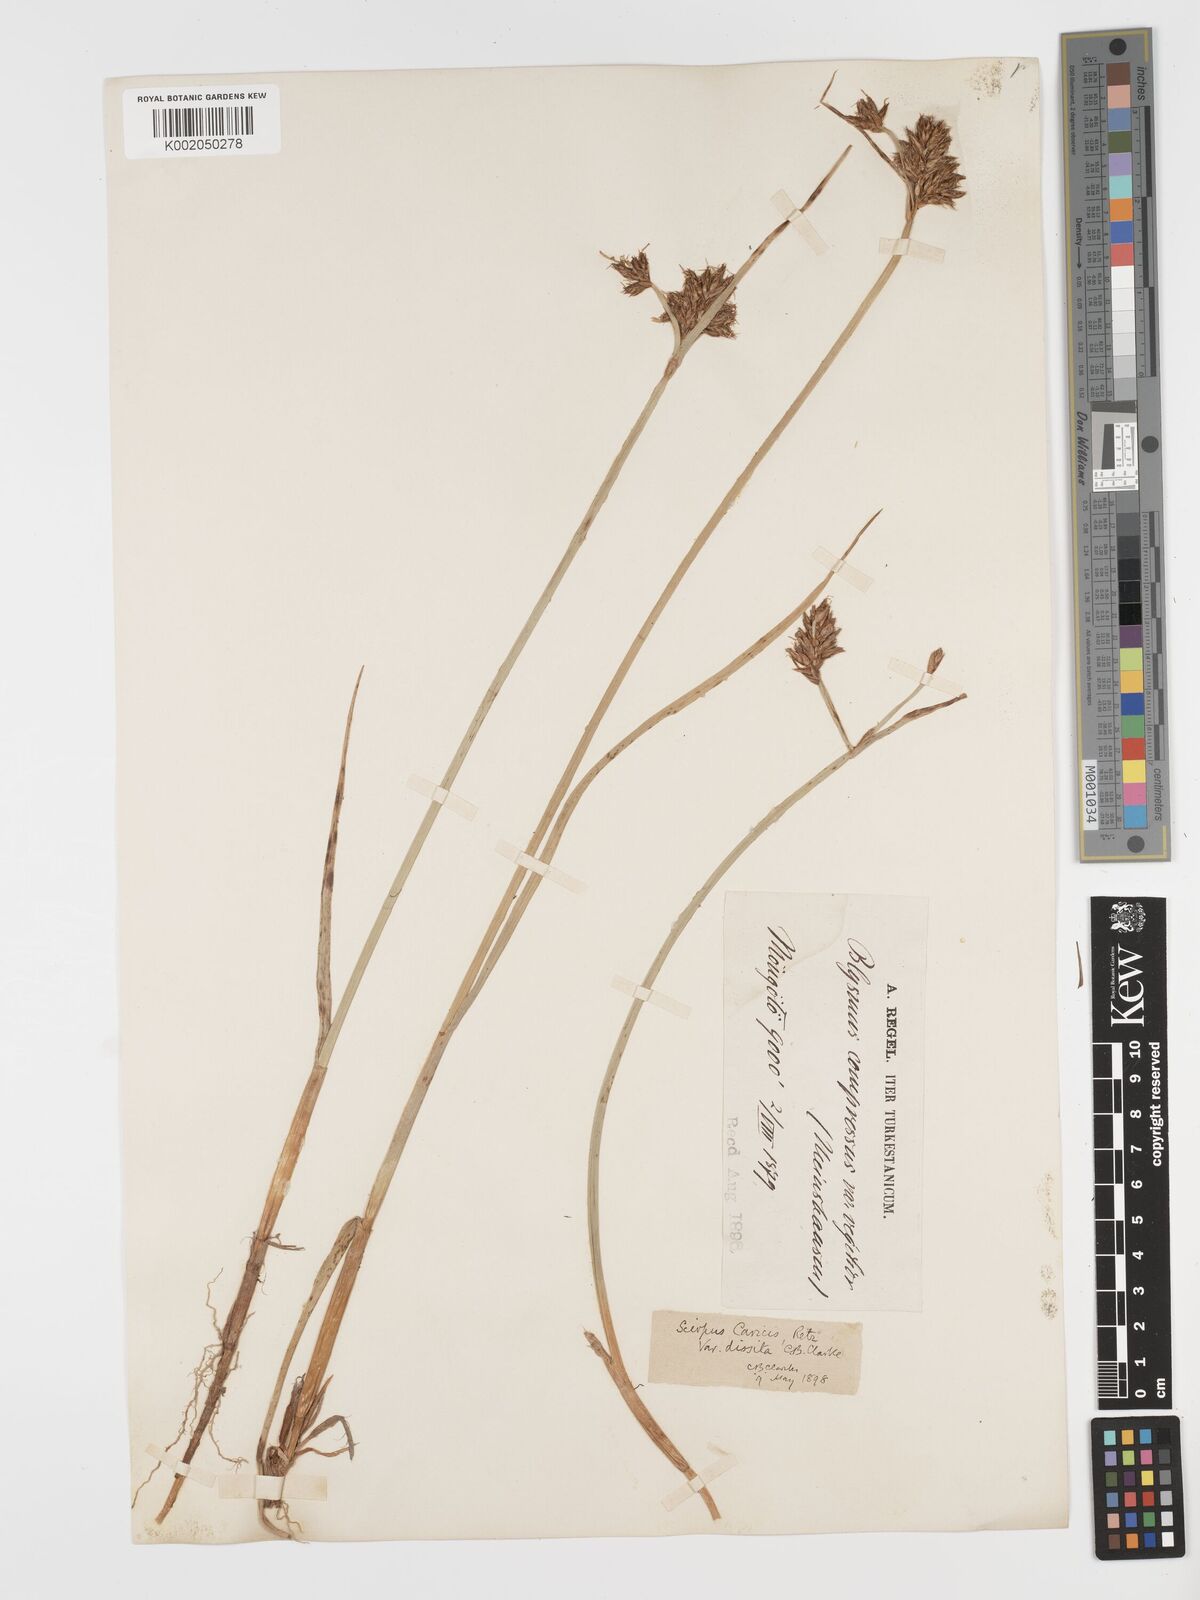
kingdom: Plantae
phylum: Tracheophyta
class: Liliopsida
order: Poales
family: Cyperaceae
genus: Blysmus
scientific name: Blysmus compressus
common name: Flat-sedge
